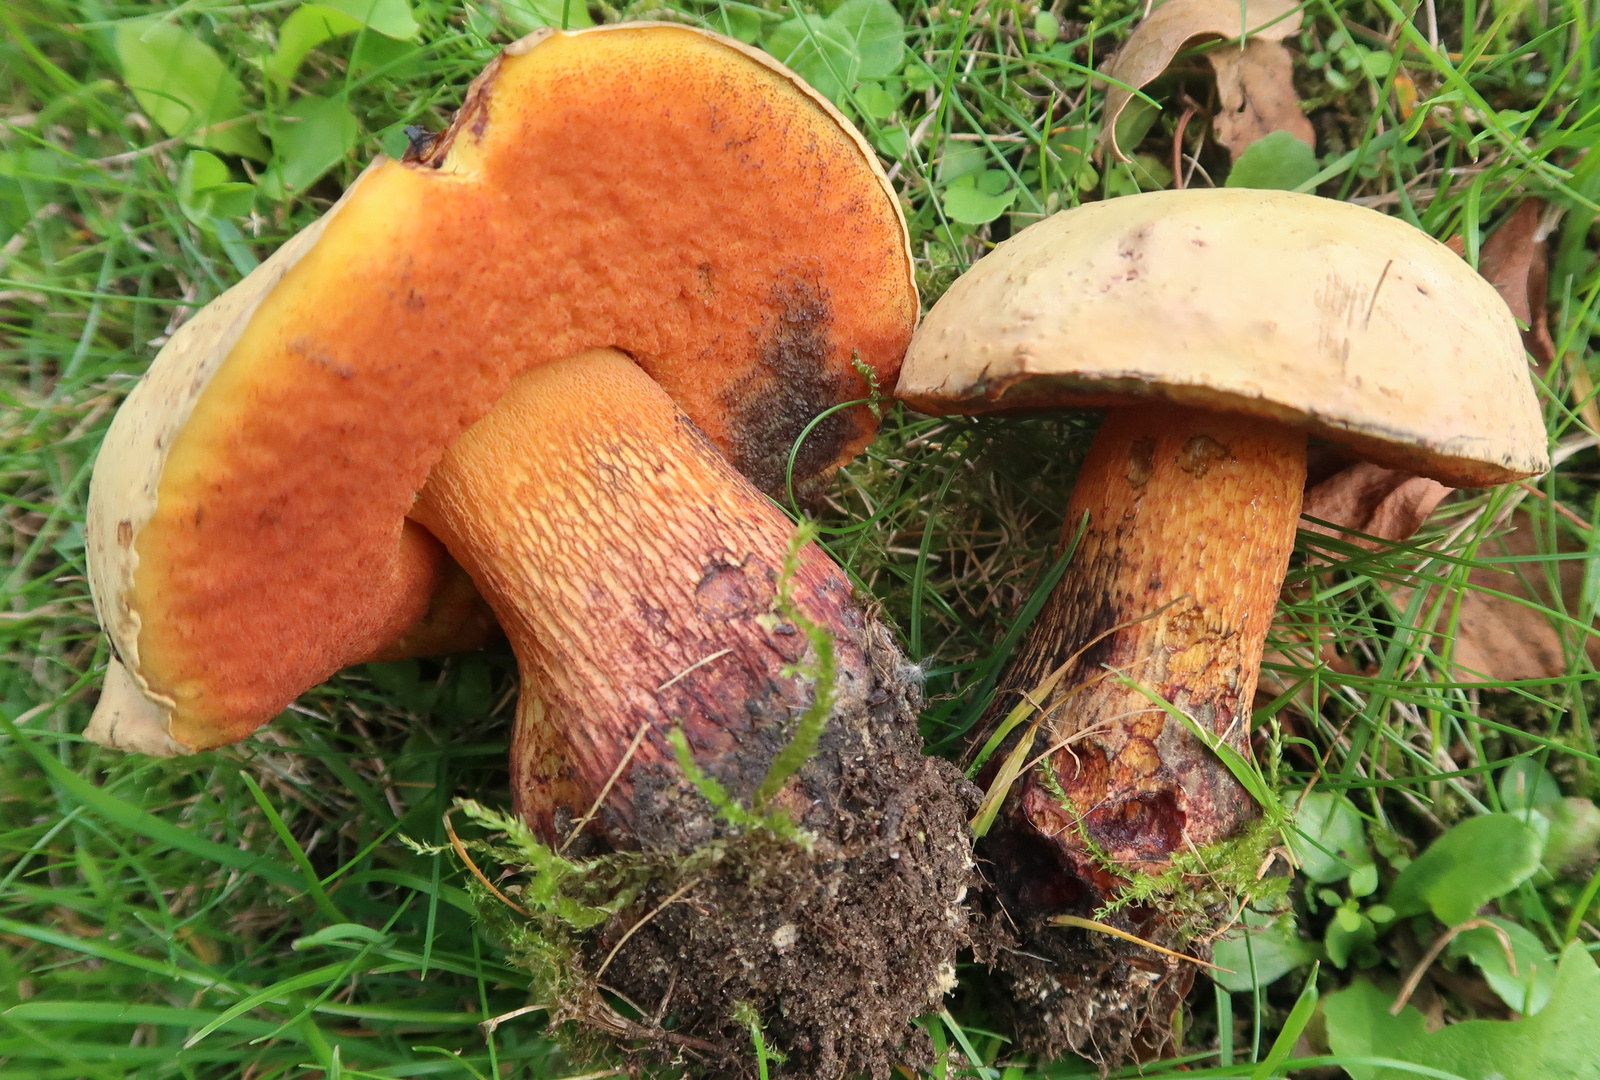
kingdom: Fungi
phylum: Basidiomycota
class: Agaricomycetes
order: Boletales
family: Boletaceae
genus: Suillellus
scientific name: Suillellus luridus
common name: netstokket indigorørhat
